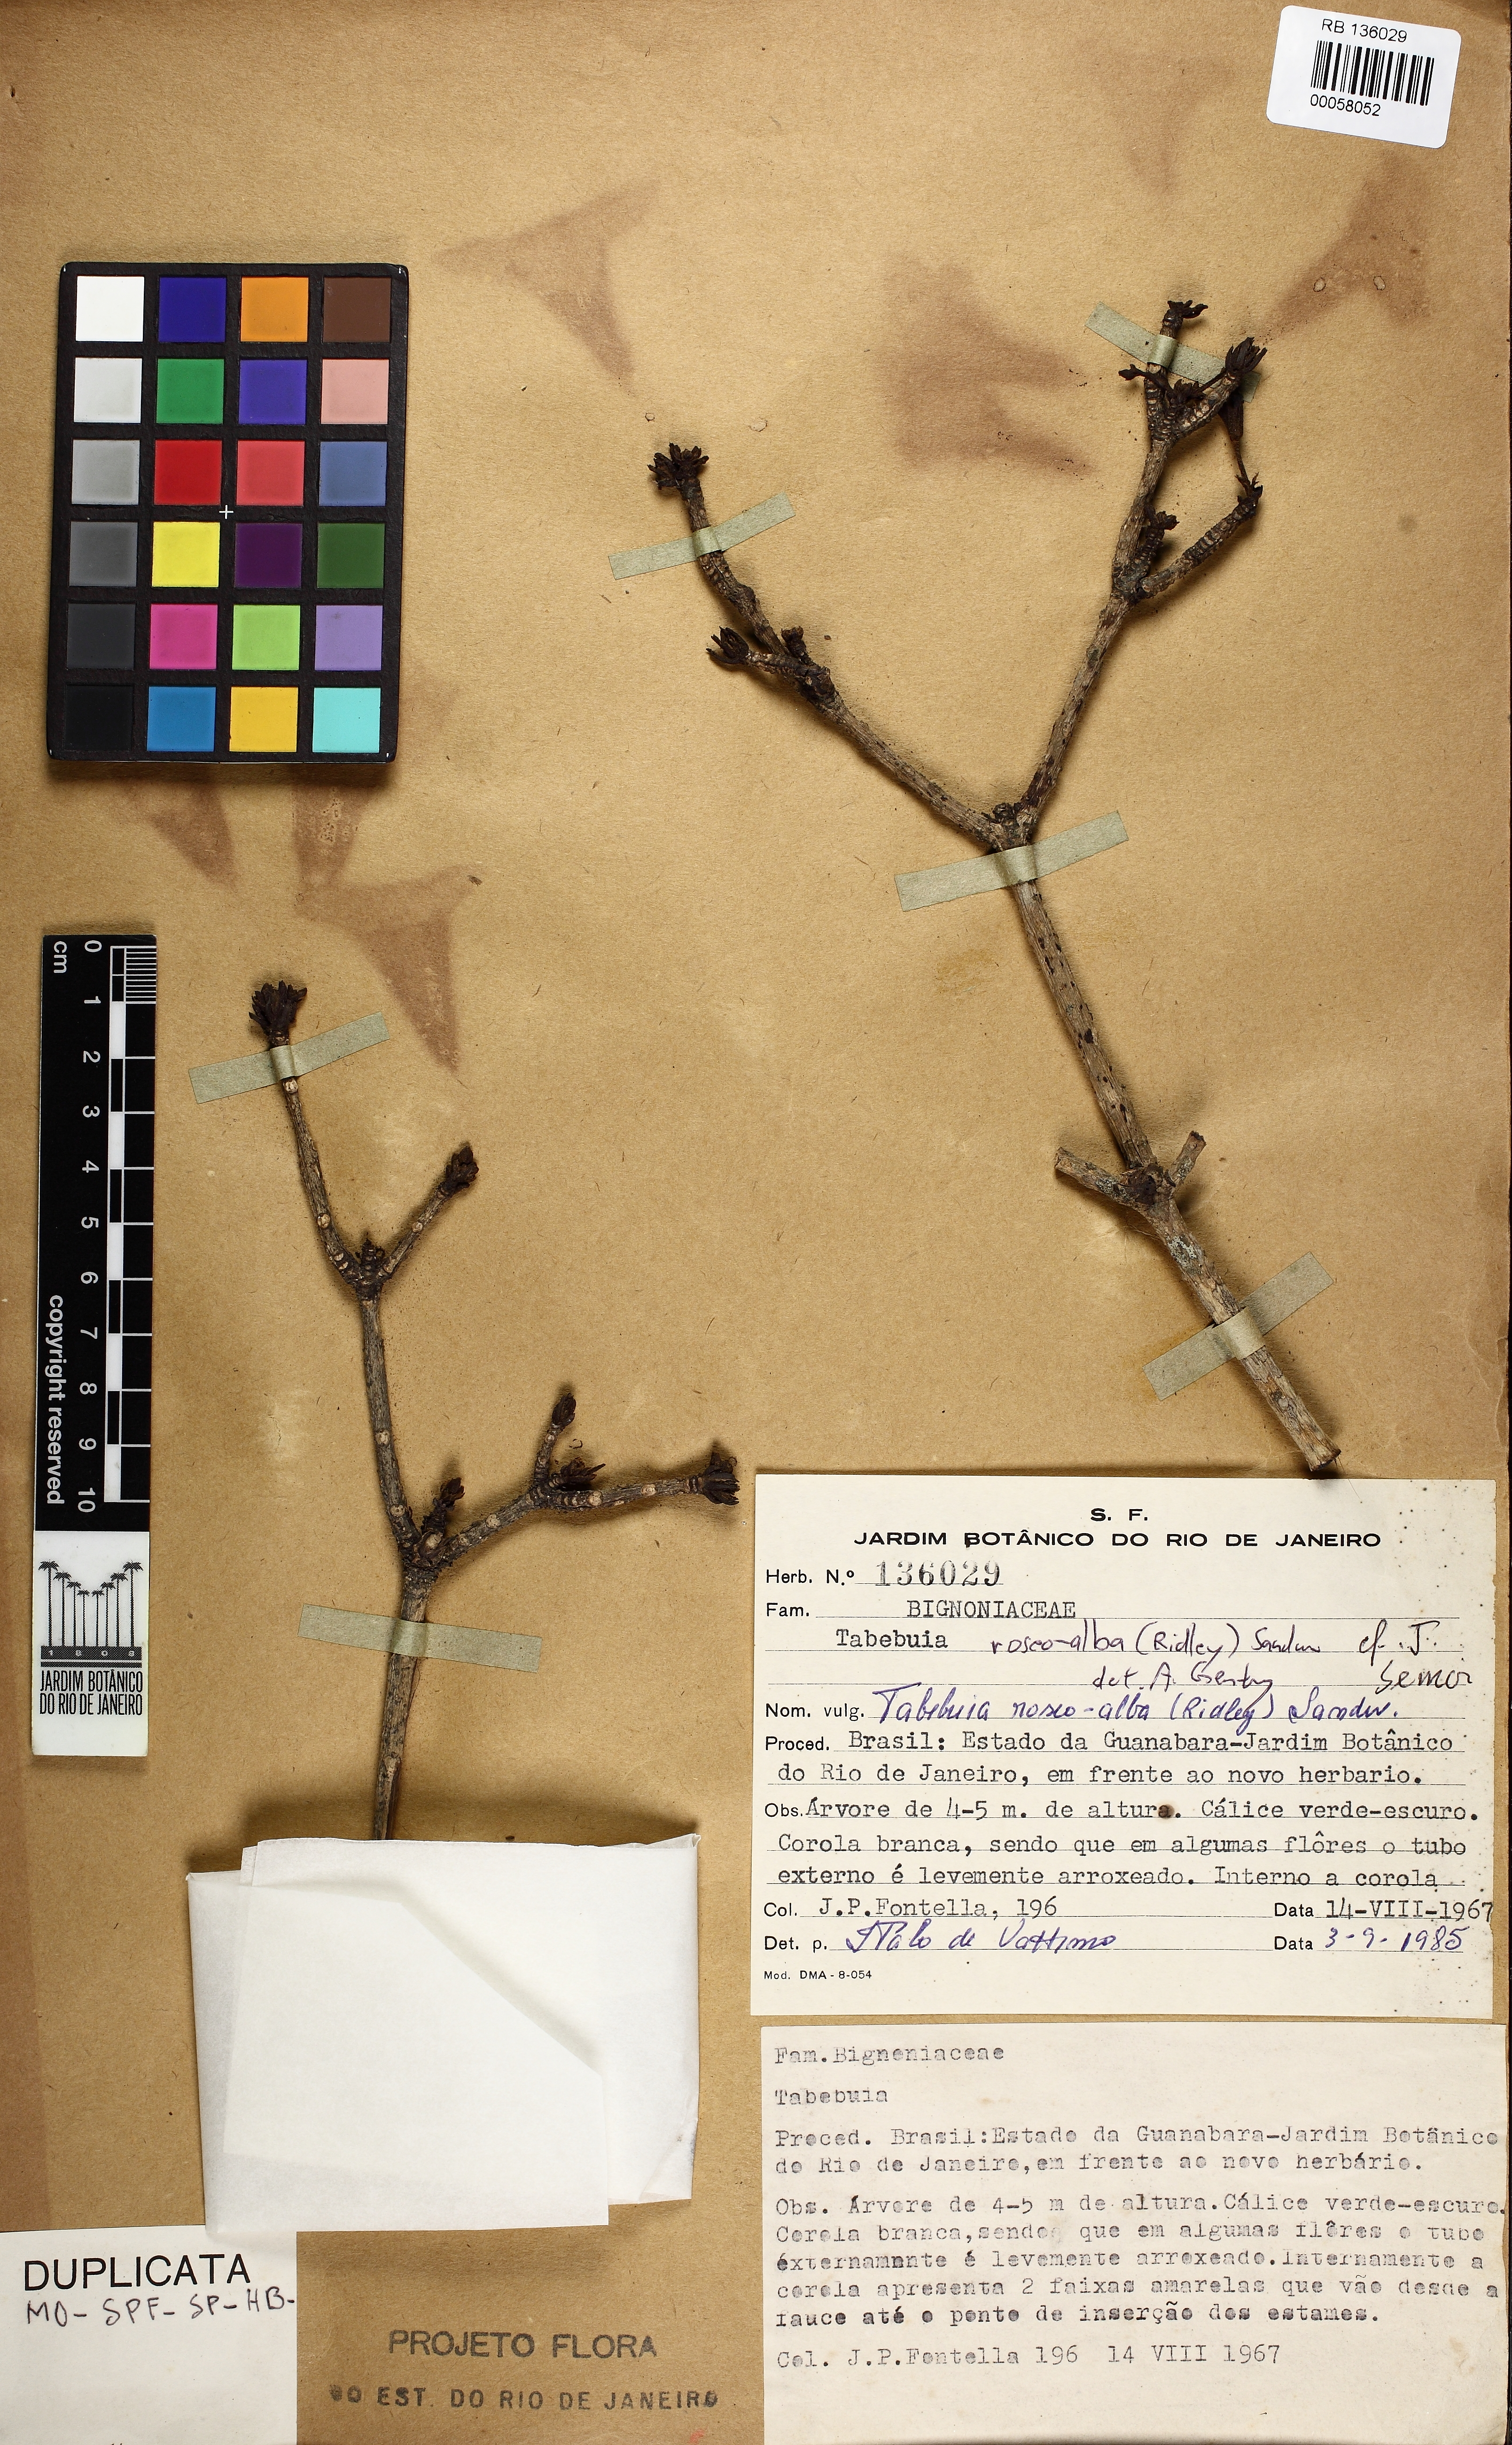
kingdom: Plantae
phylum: Tracheophyta
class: Magnoliopsida
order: Lamiales
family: Bignoniaceae
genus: Tabebuia
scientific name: Tabebuia roseoalba
